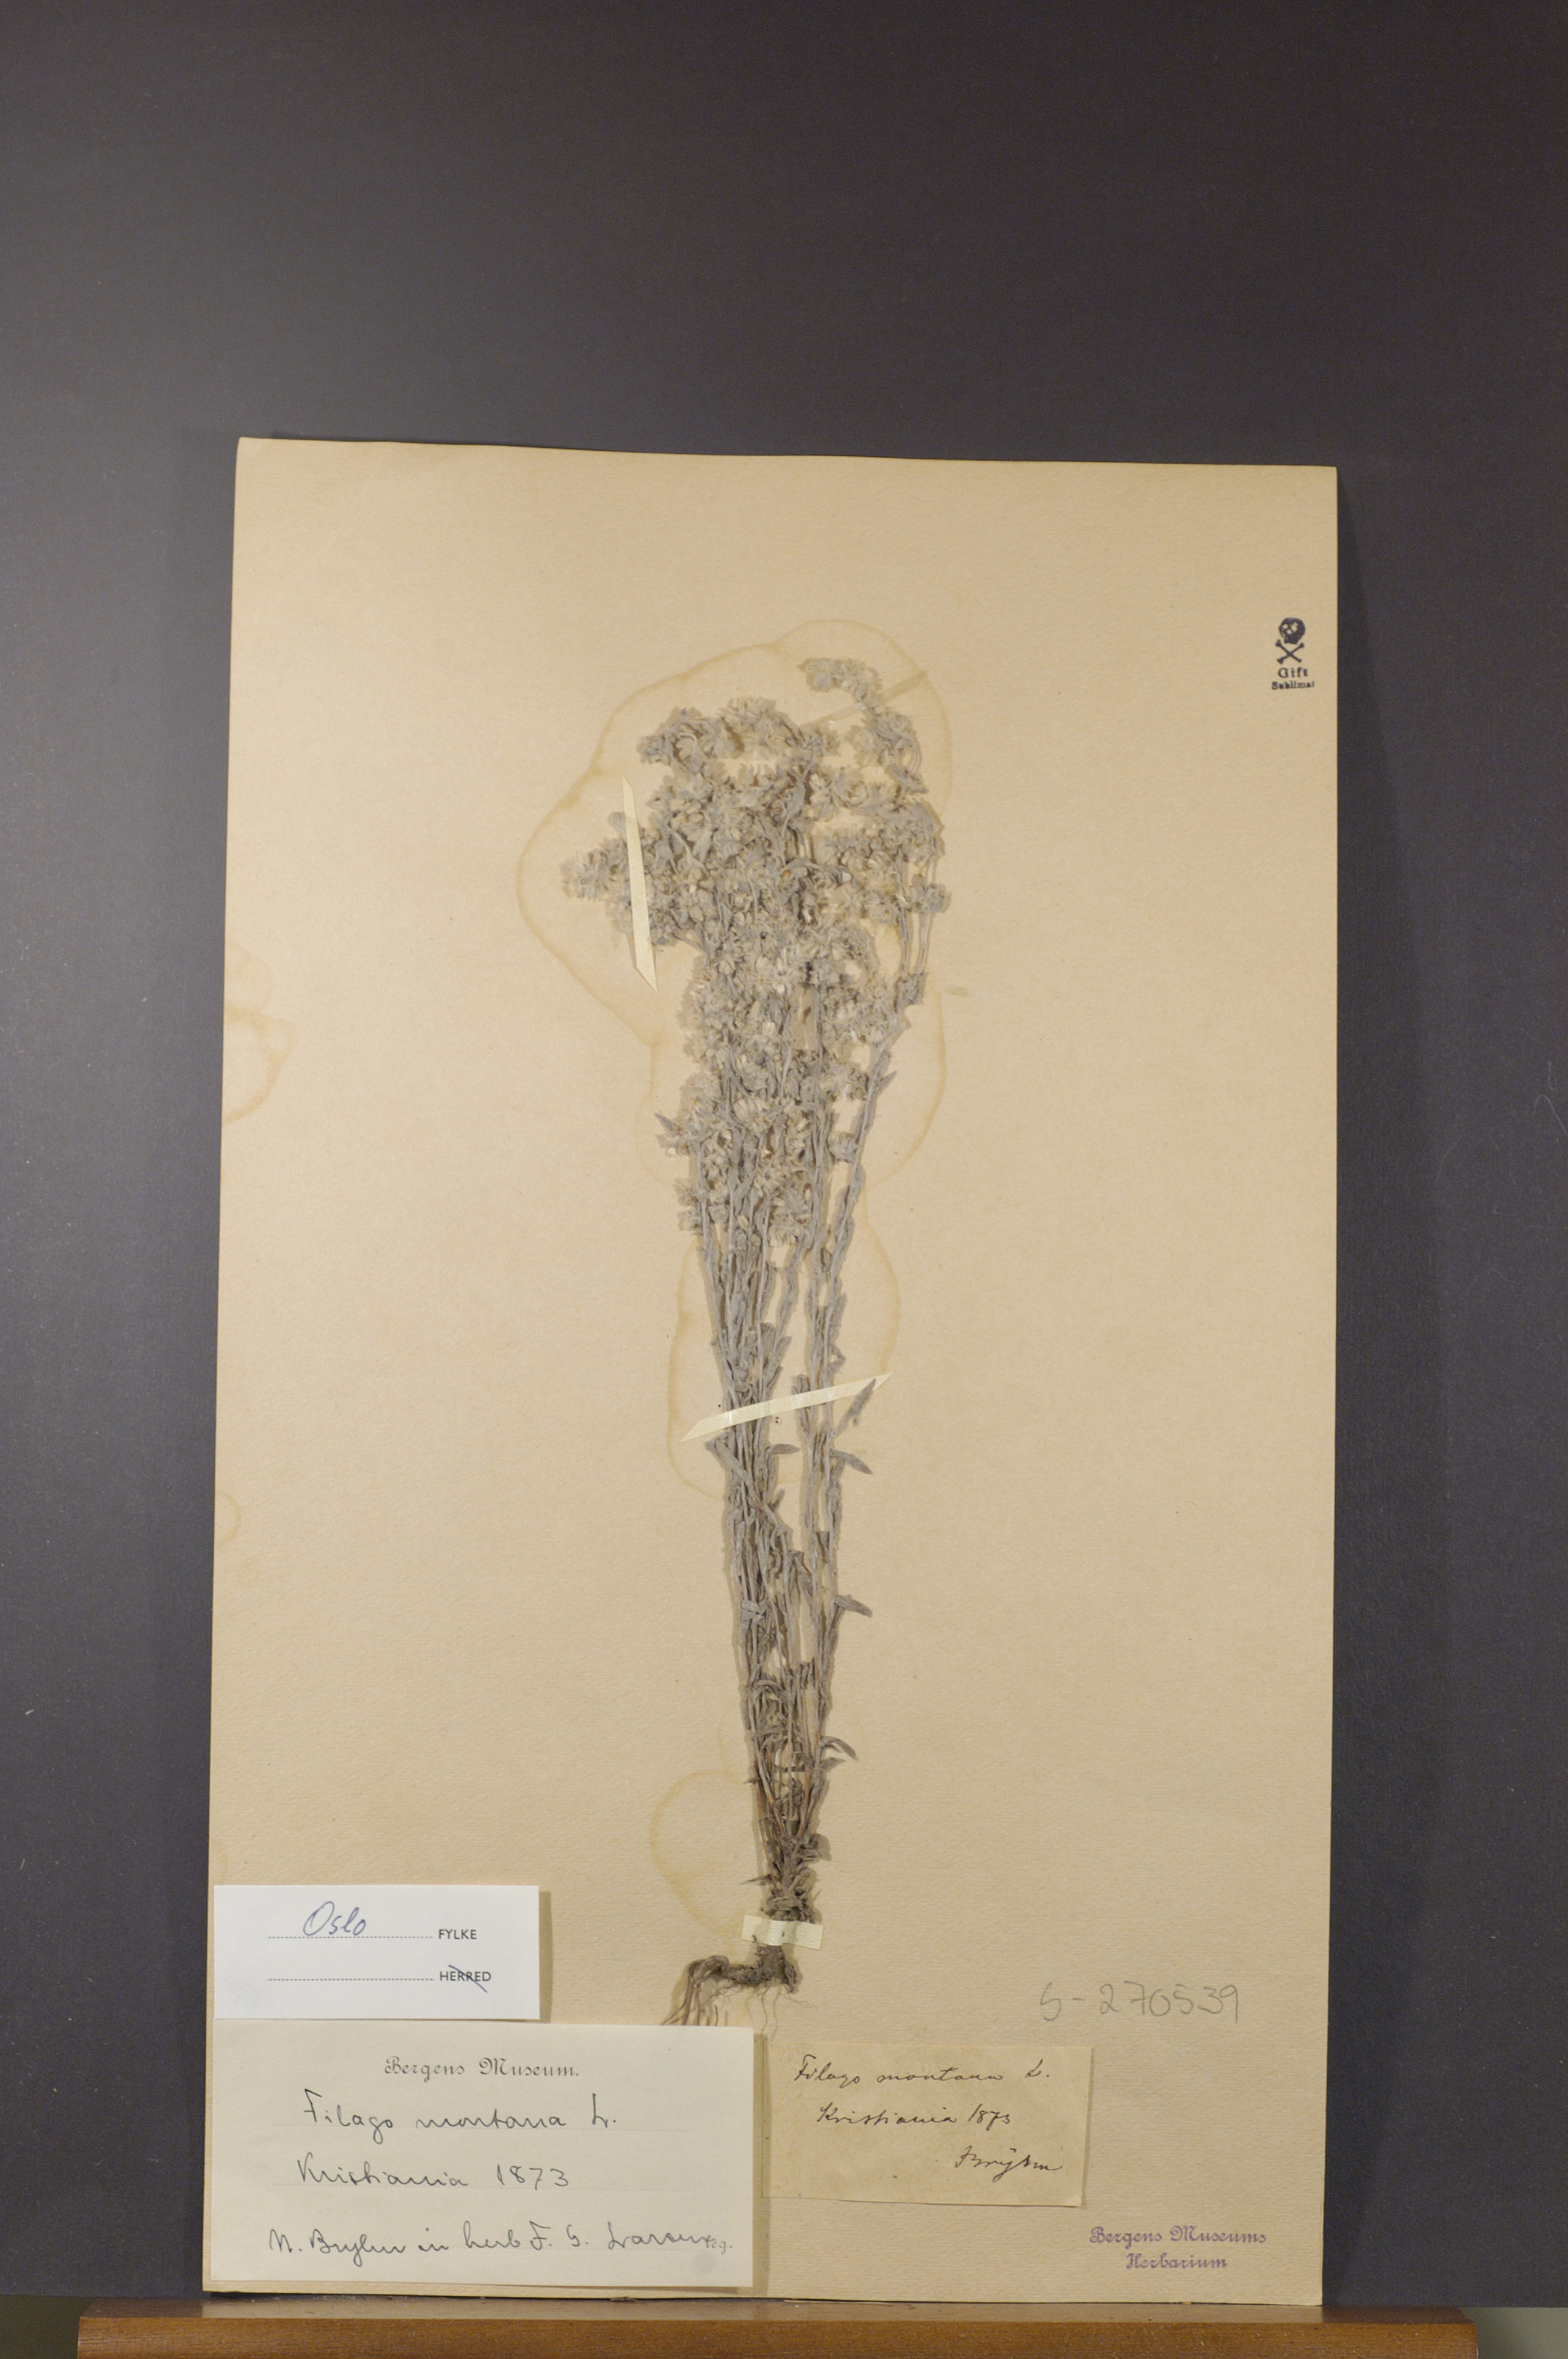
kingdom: Plantae
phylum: Tracheophyta
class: Magnoliopsida
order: Asterales
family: Asteraceae
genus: Filago
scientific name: Filago arvensis
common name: Field cudweed
